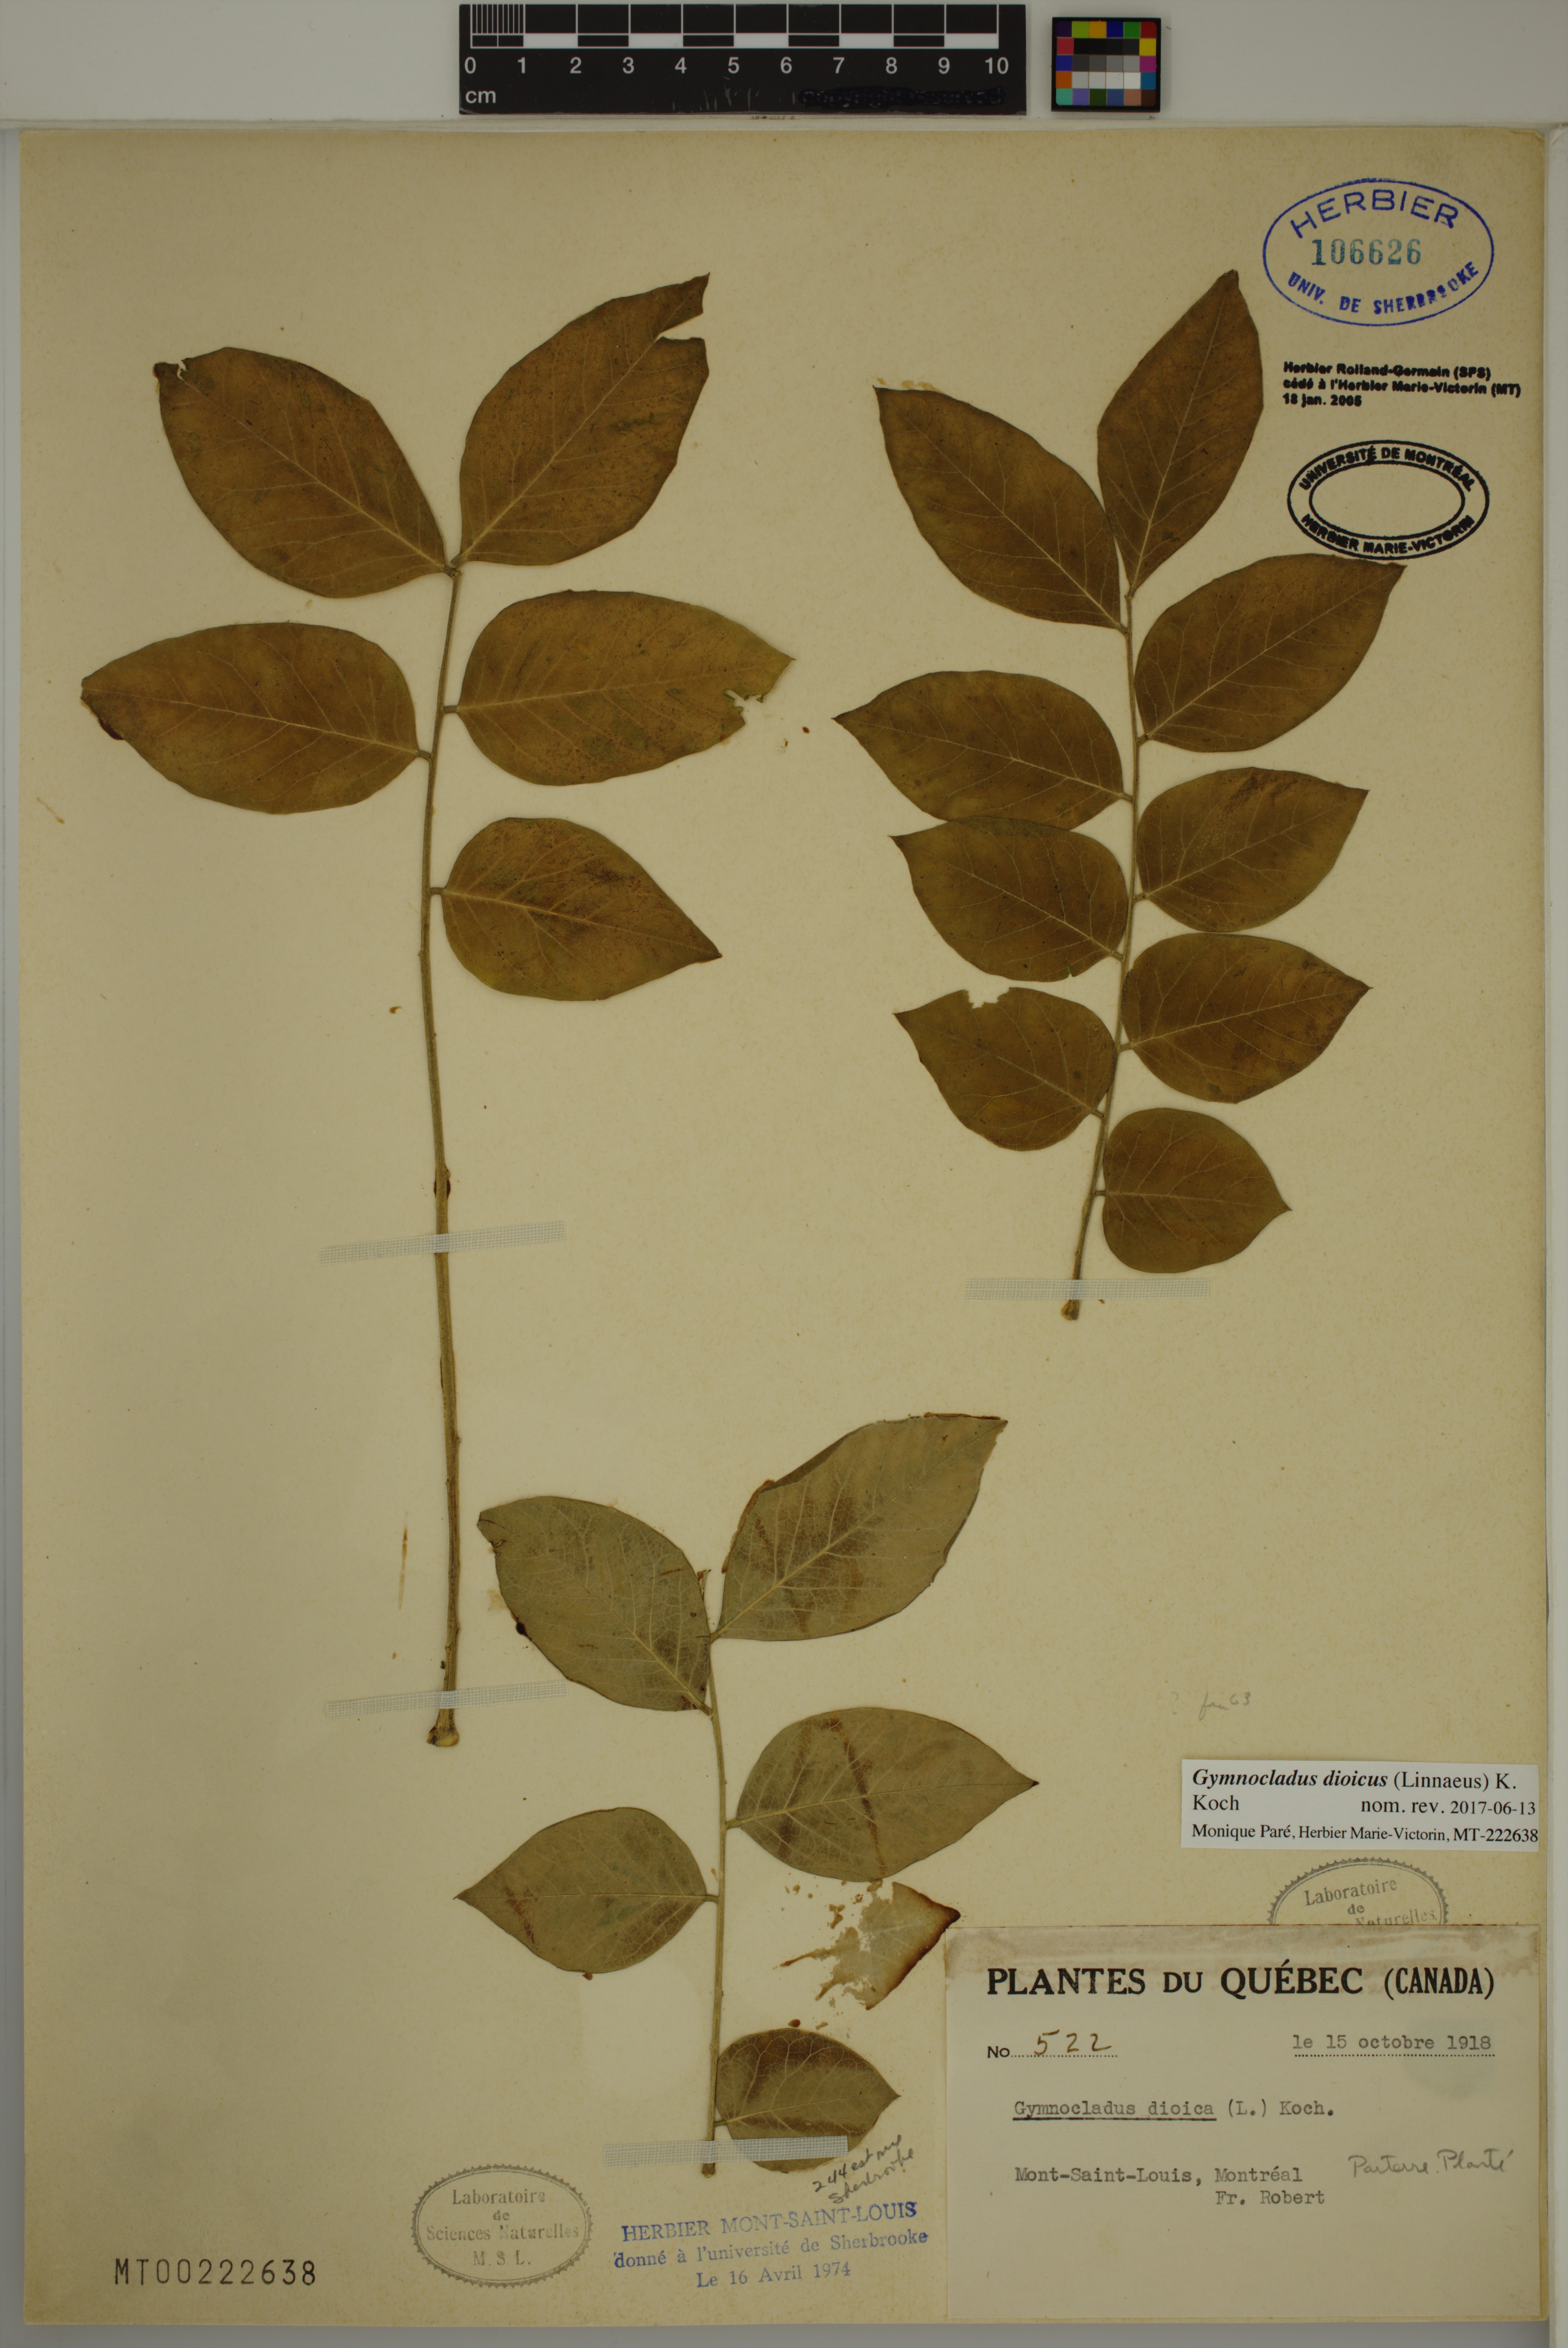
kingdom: Plantae
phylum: Tracheophyta
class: Magnoliopsida
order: Fabales
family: Fabaceae
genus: Gymnocladus
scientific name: Gymnocladus dioicus
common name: Kentucky coffee-tree
